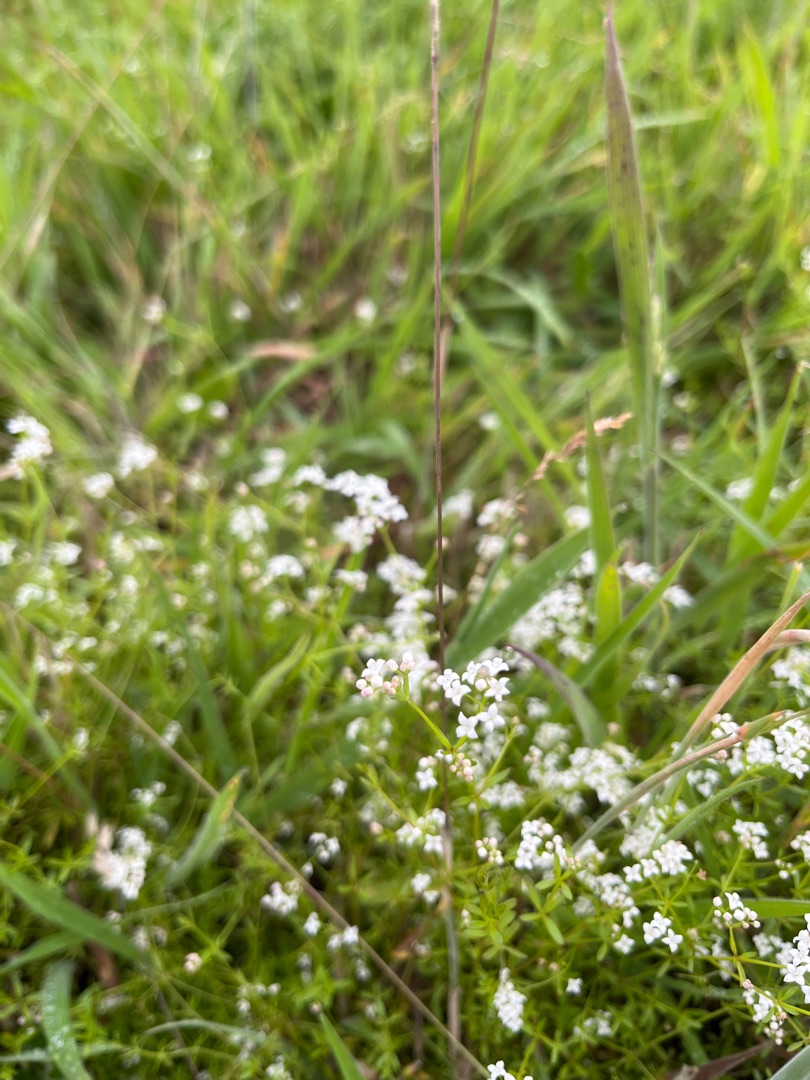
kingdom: Plantae
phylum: Tracheophyta
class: Magnoliopsida
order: Gentianales
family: Rubiaceae
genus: Galium
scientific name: Galium palustre
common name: Kær-snerre
